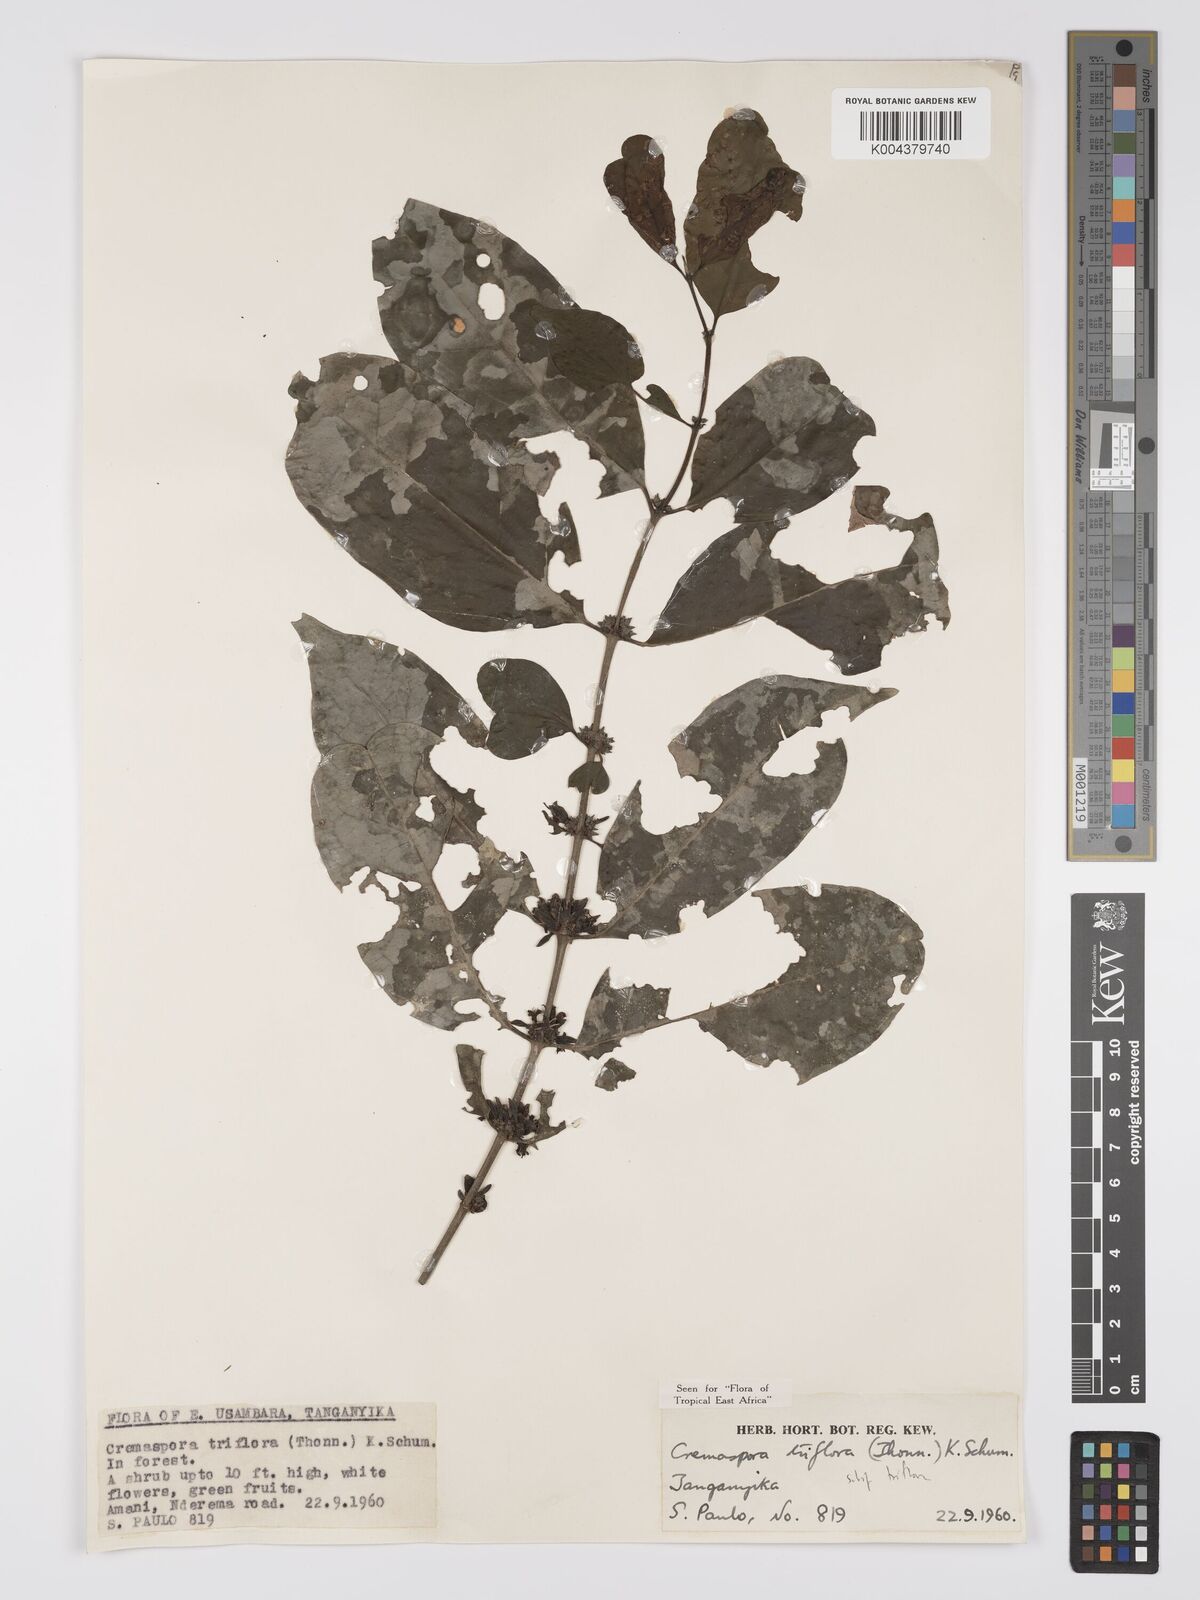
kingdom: Plantae
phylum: Tracheophyta
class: Magnoliopsida
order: Gentianales
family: Rubiaceae
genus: Cremaspora
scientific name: Cremaspora triflora
